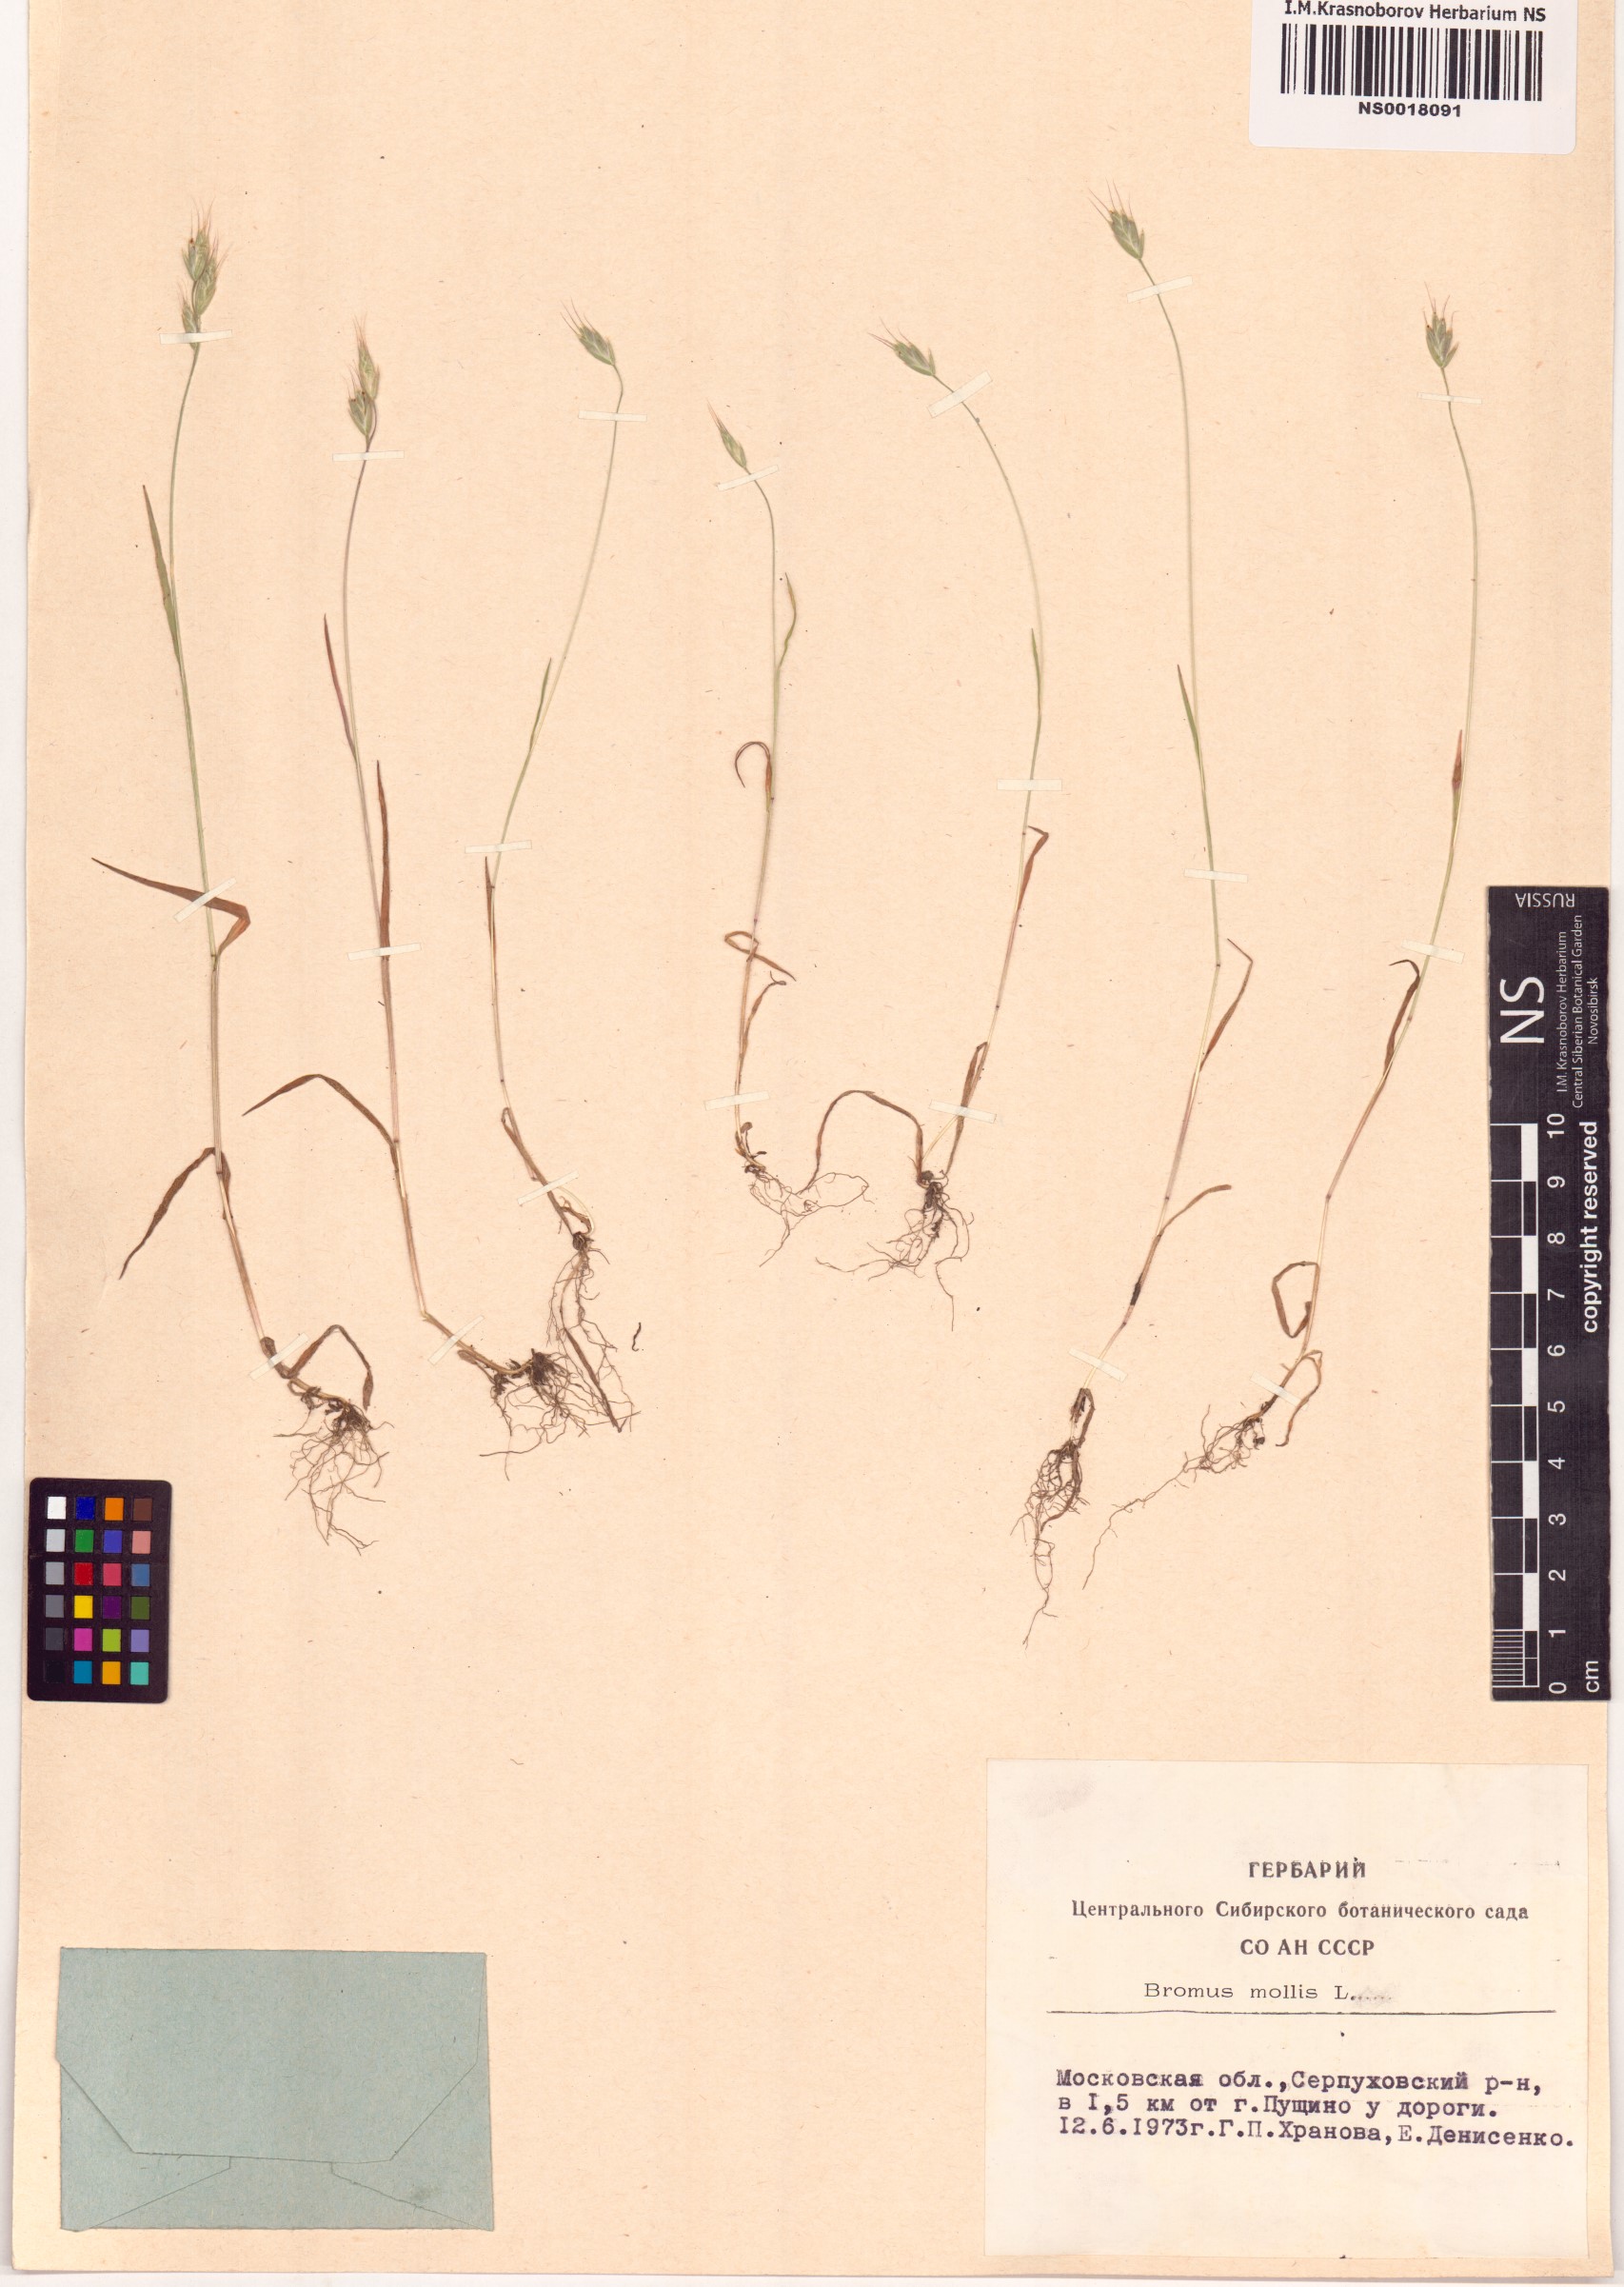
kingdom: Plantae
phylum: Tracheophyta
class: Liliopsida
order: Poales
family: Poaceae
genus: Bromus
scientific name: Bromus hordeaceus
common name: Soft brome
